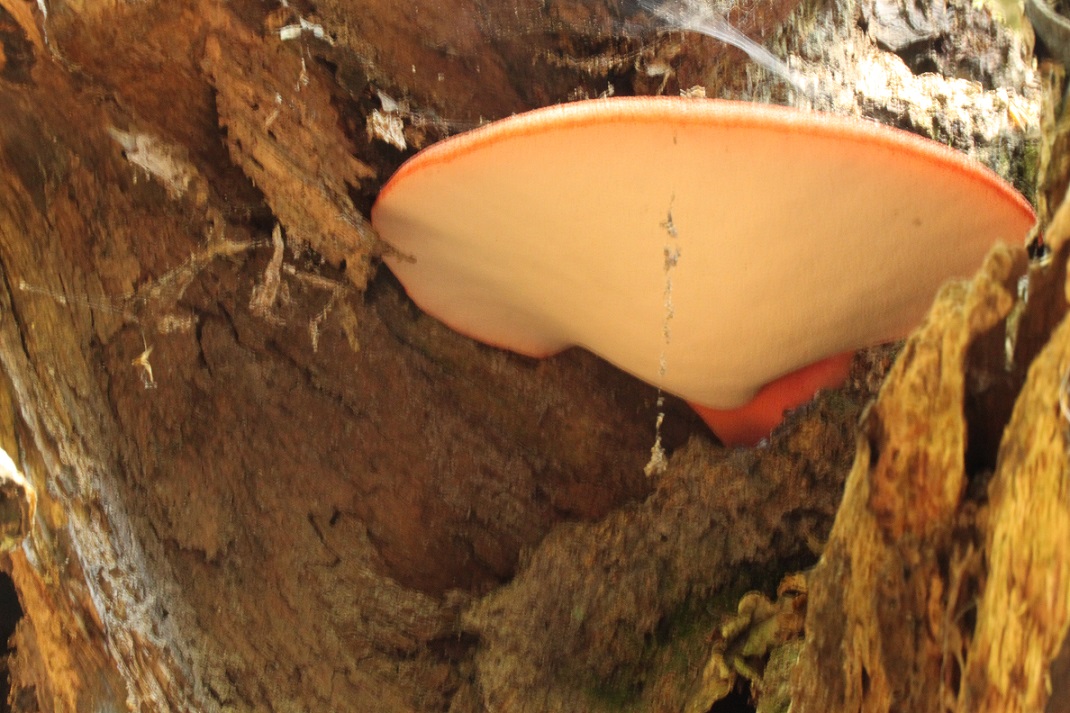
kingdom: Fungi
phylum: Basidiomycota
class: Agaricomycetes
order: Agaricales
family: Fistulinaceae
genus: Fistulina
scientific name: Fistulina hepatica
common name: oksetunge
